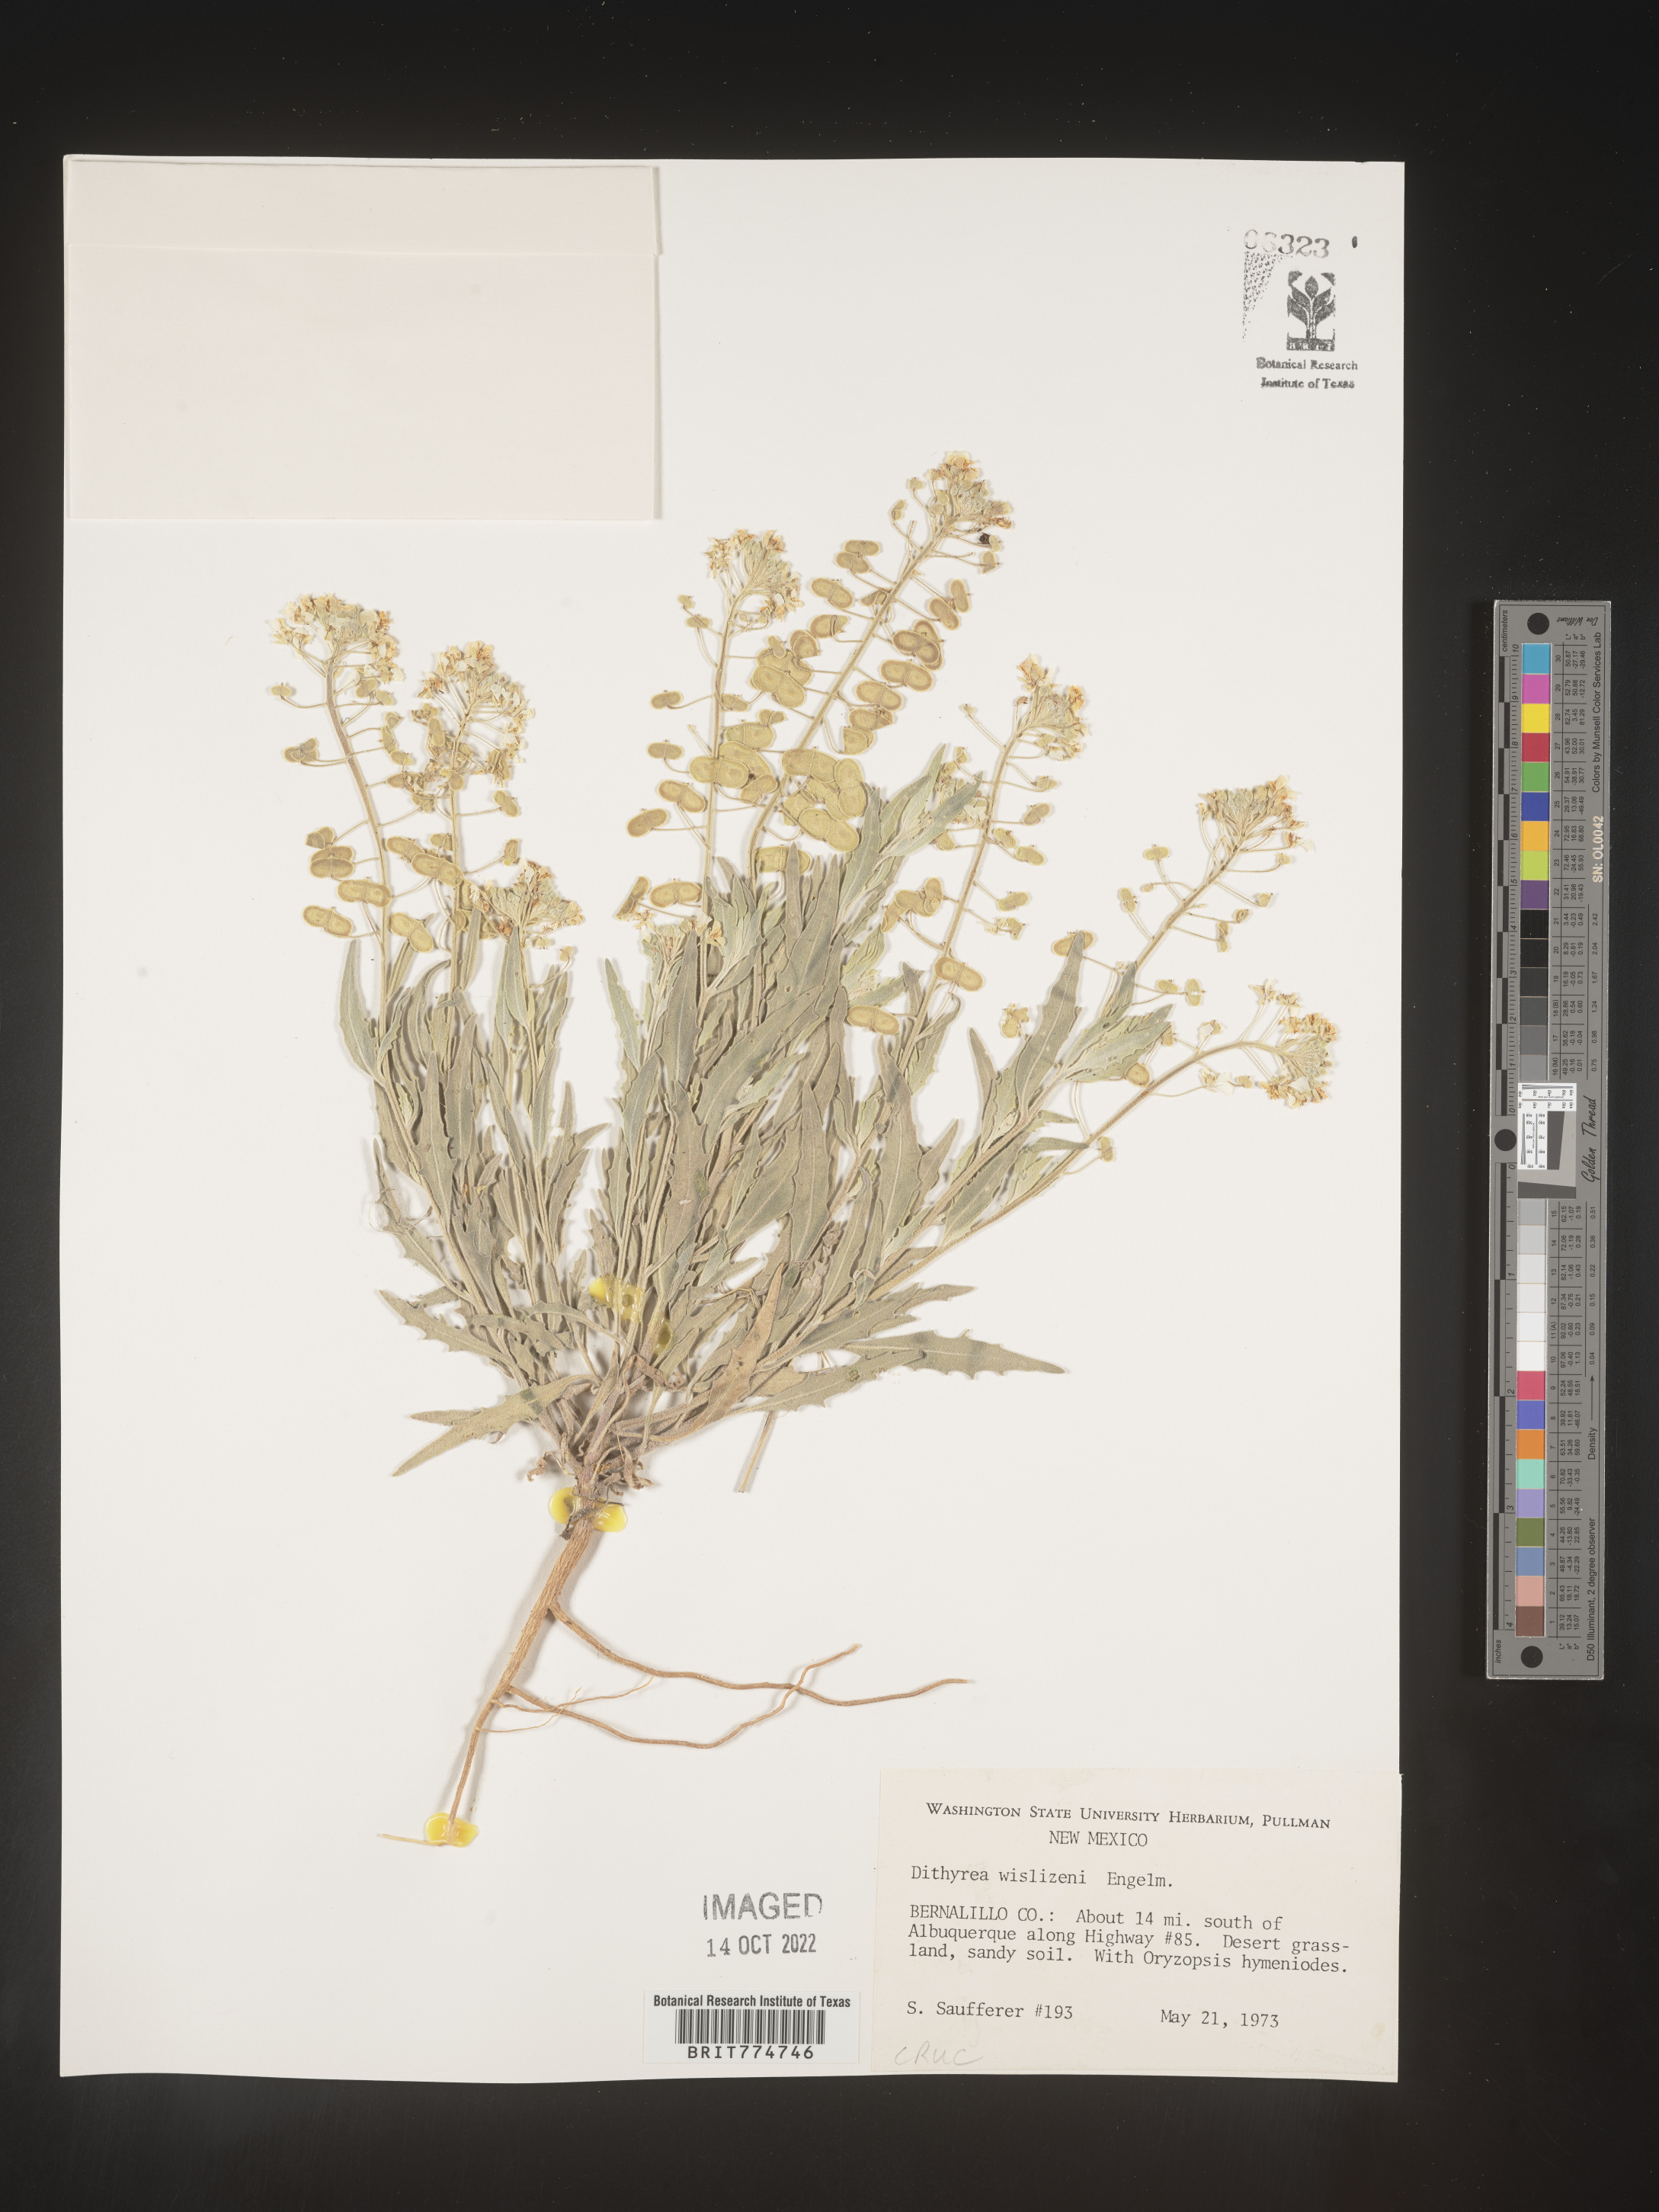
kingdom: Plantae
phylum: Tracheophyta
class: Magnoliopsida
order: Brassicales
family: Brassicaceae
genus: Dimorphocarpa
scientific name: Dimorphocarpa wislizenii
